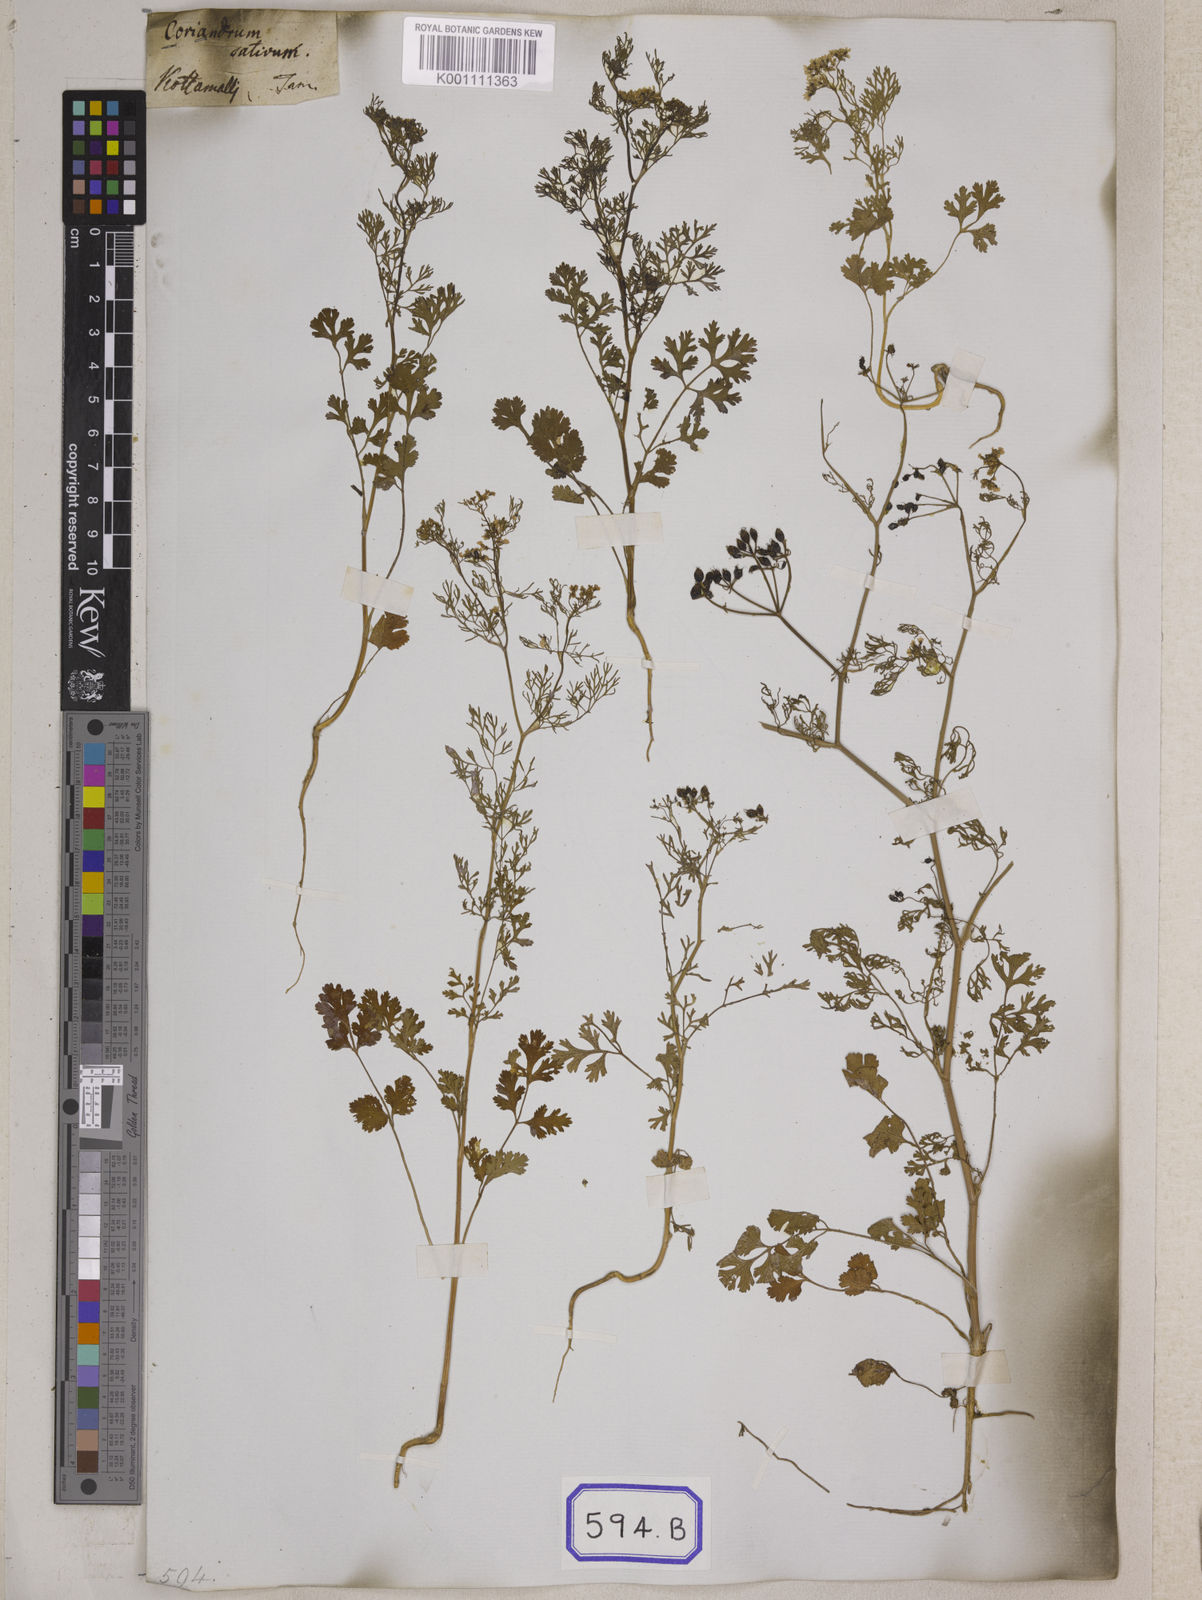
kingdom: Plantae
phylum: Tracheophyta
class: Magnoliopsida
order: Apiales
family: Apiaceae
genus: Cuminum
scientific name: Cuminum cyminum
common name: Cumin
